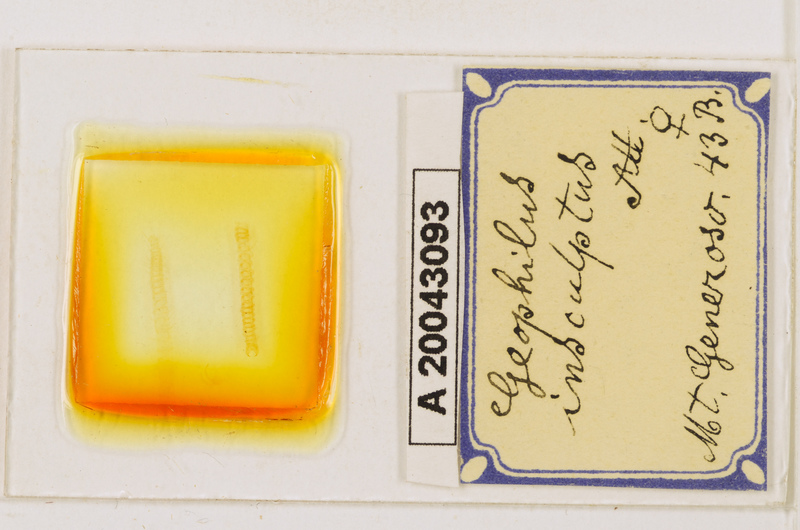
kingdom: Animalia
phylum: Arthropoda
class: Chilopoda
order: Geophilomorpha
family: Geophilidae
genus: Geophilus
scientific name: Geophilus insculptus
